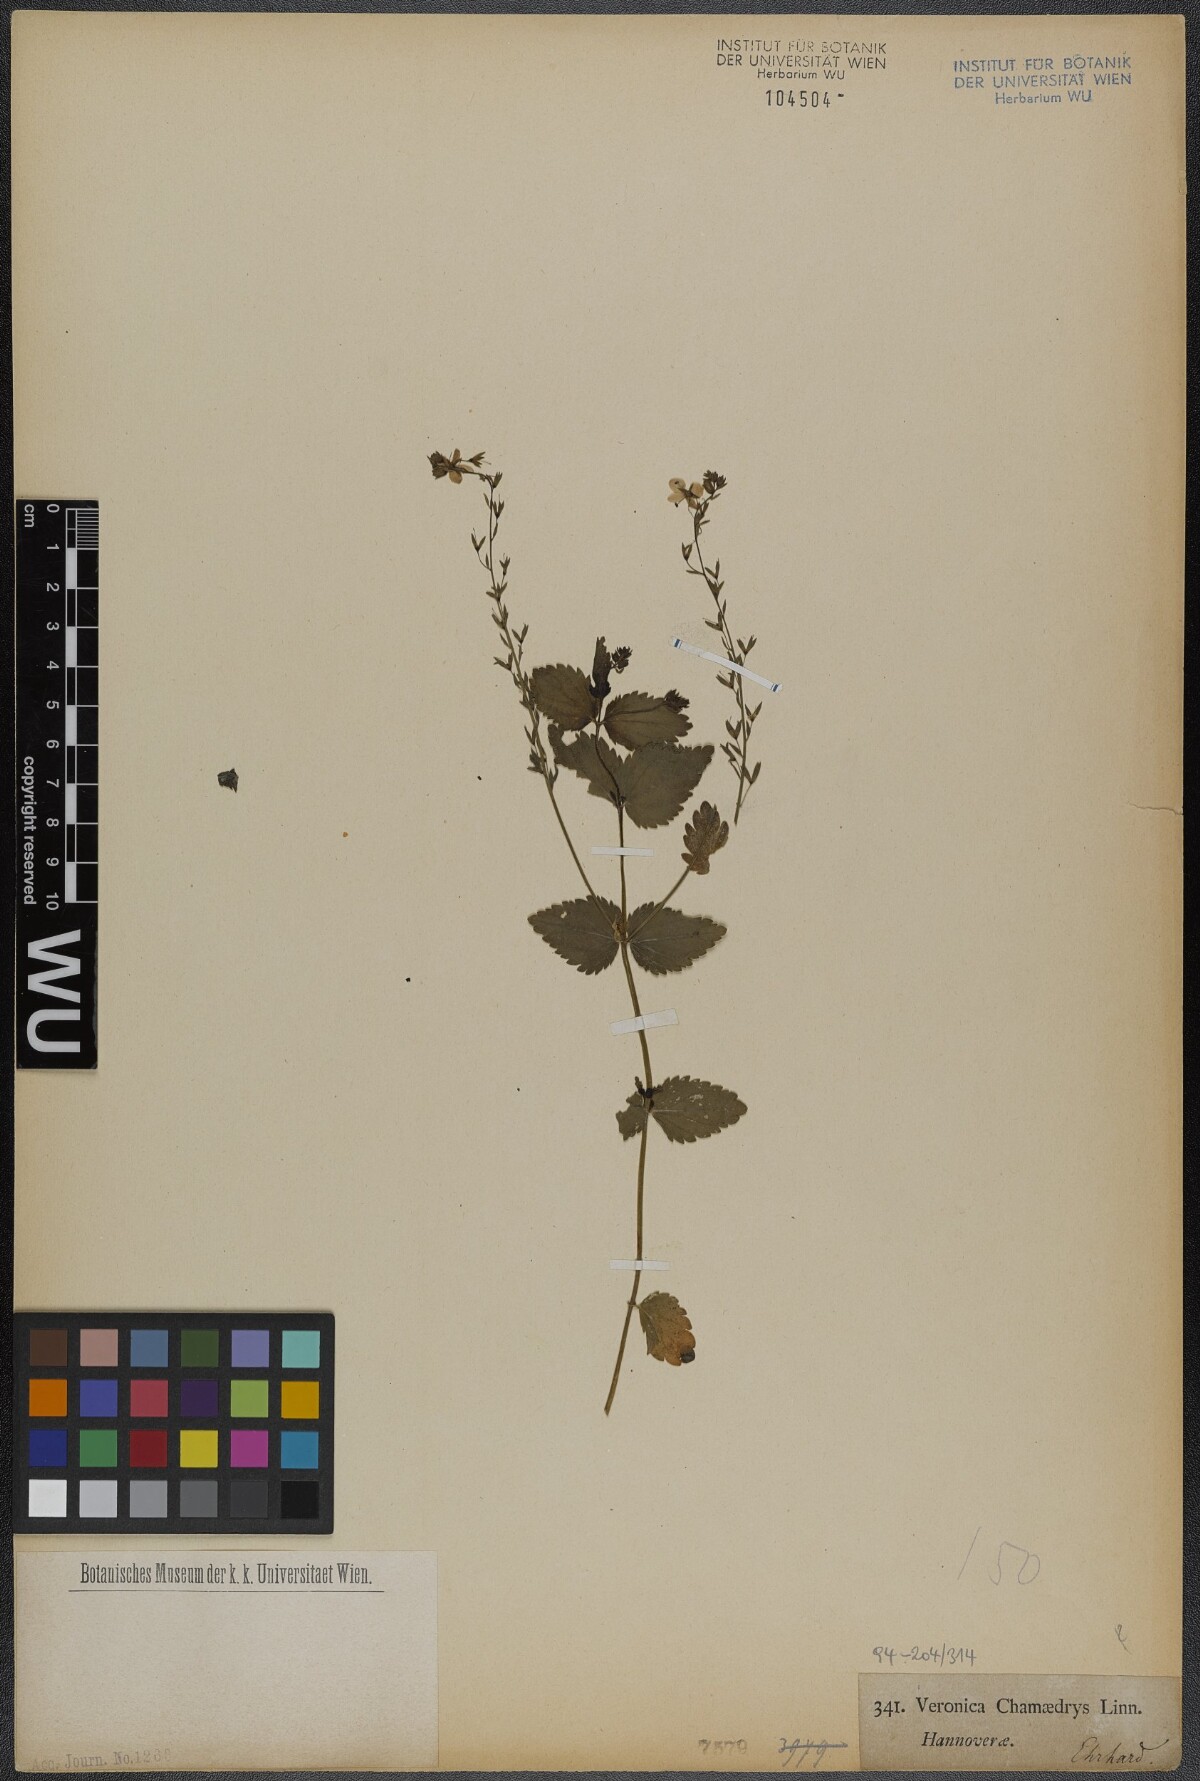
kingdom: Plantae
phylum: Tracheophyta
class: Magnoliopsida
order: Lamiales
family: Plantaginaceae
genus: Veronica
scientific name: Veronica chamaedrys
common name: Germander speedwell
